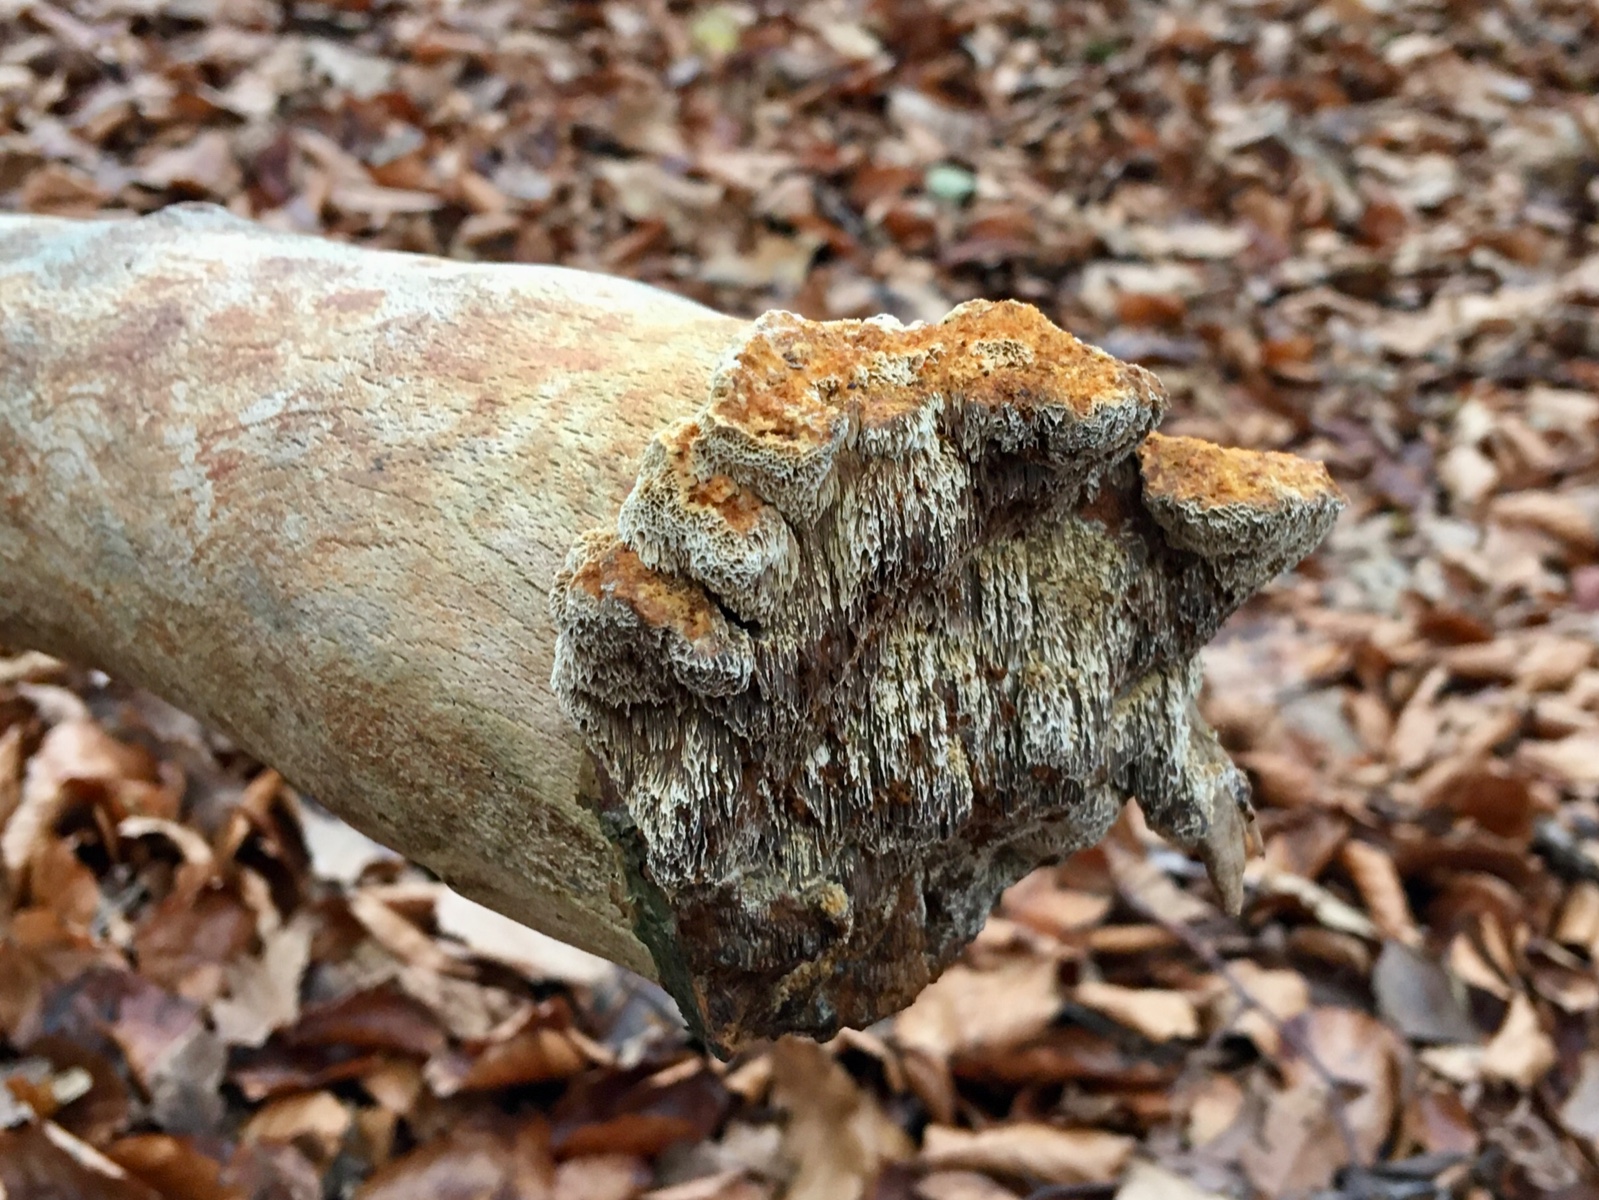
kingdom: Fungi
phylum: Basidiomycota
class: Agaricomycetes
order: Hymenochaetales
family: Hymenochaetaceae
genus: Mensularia
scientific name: Mensularia nodulosa
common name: bøge-spejlporesvamp
